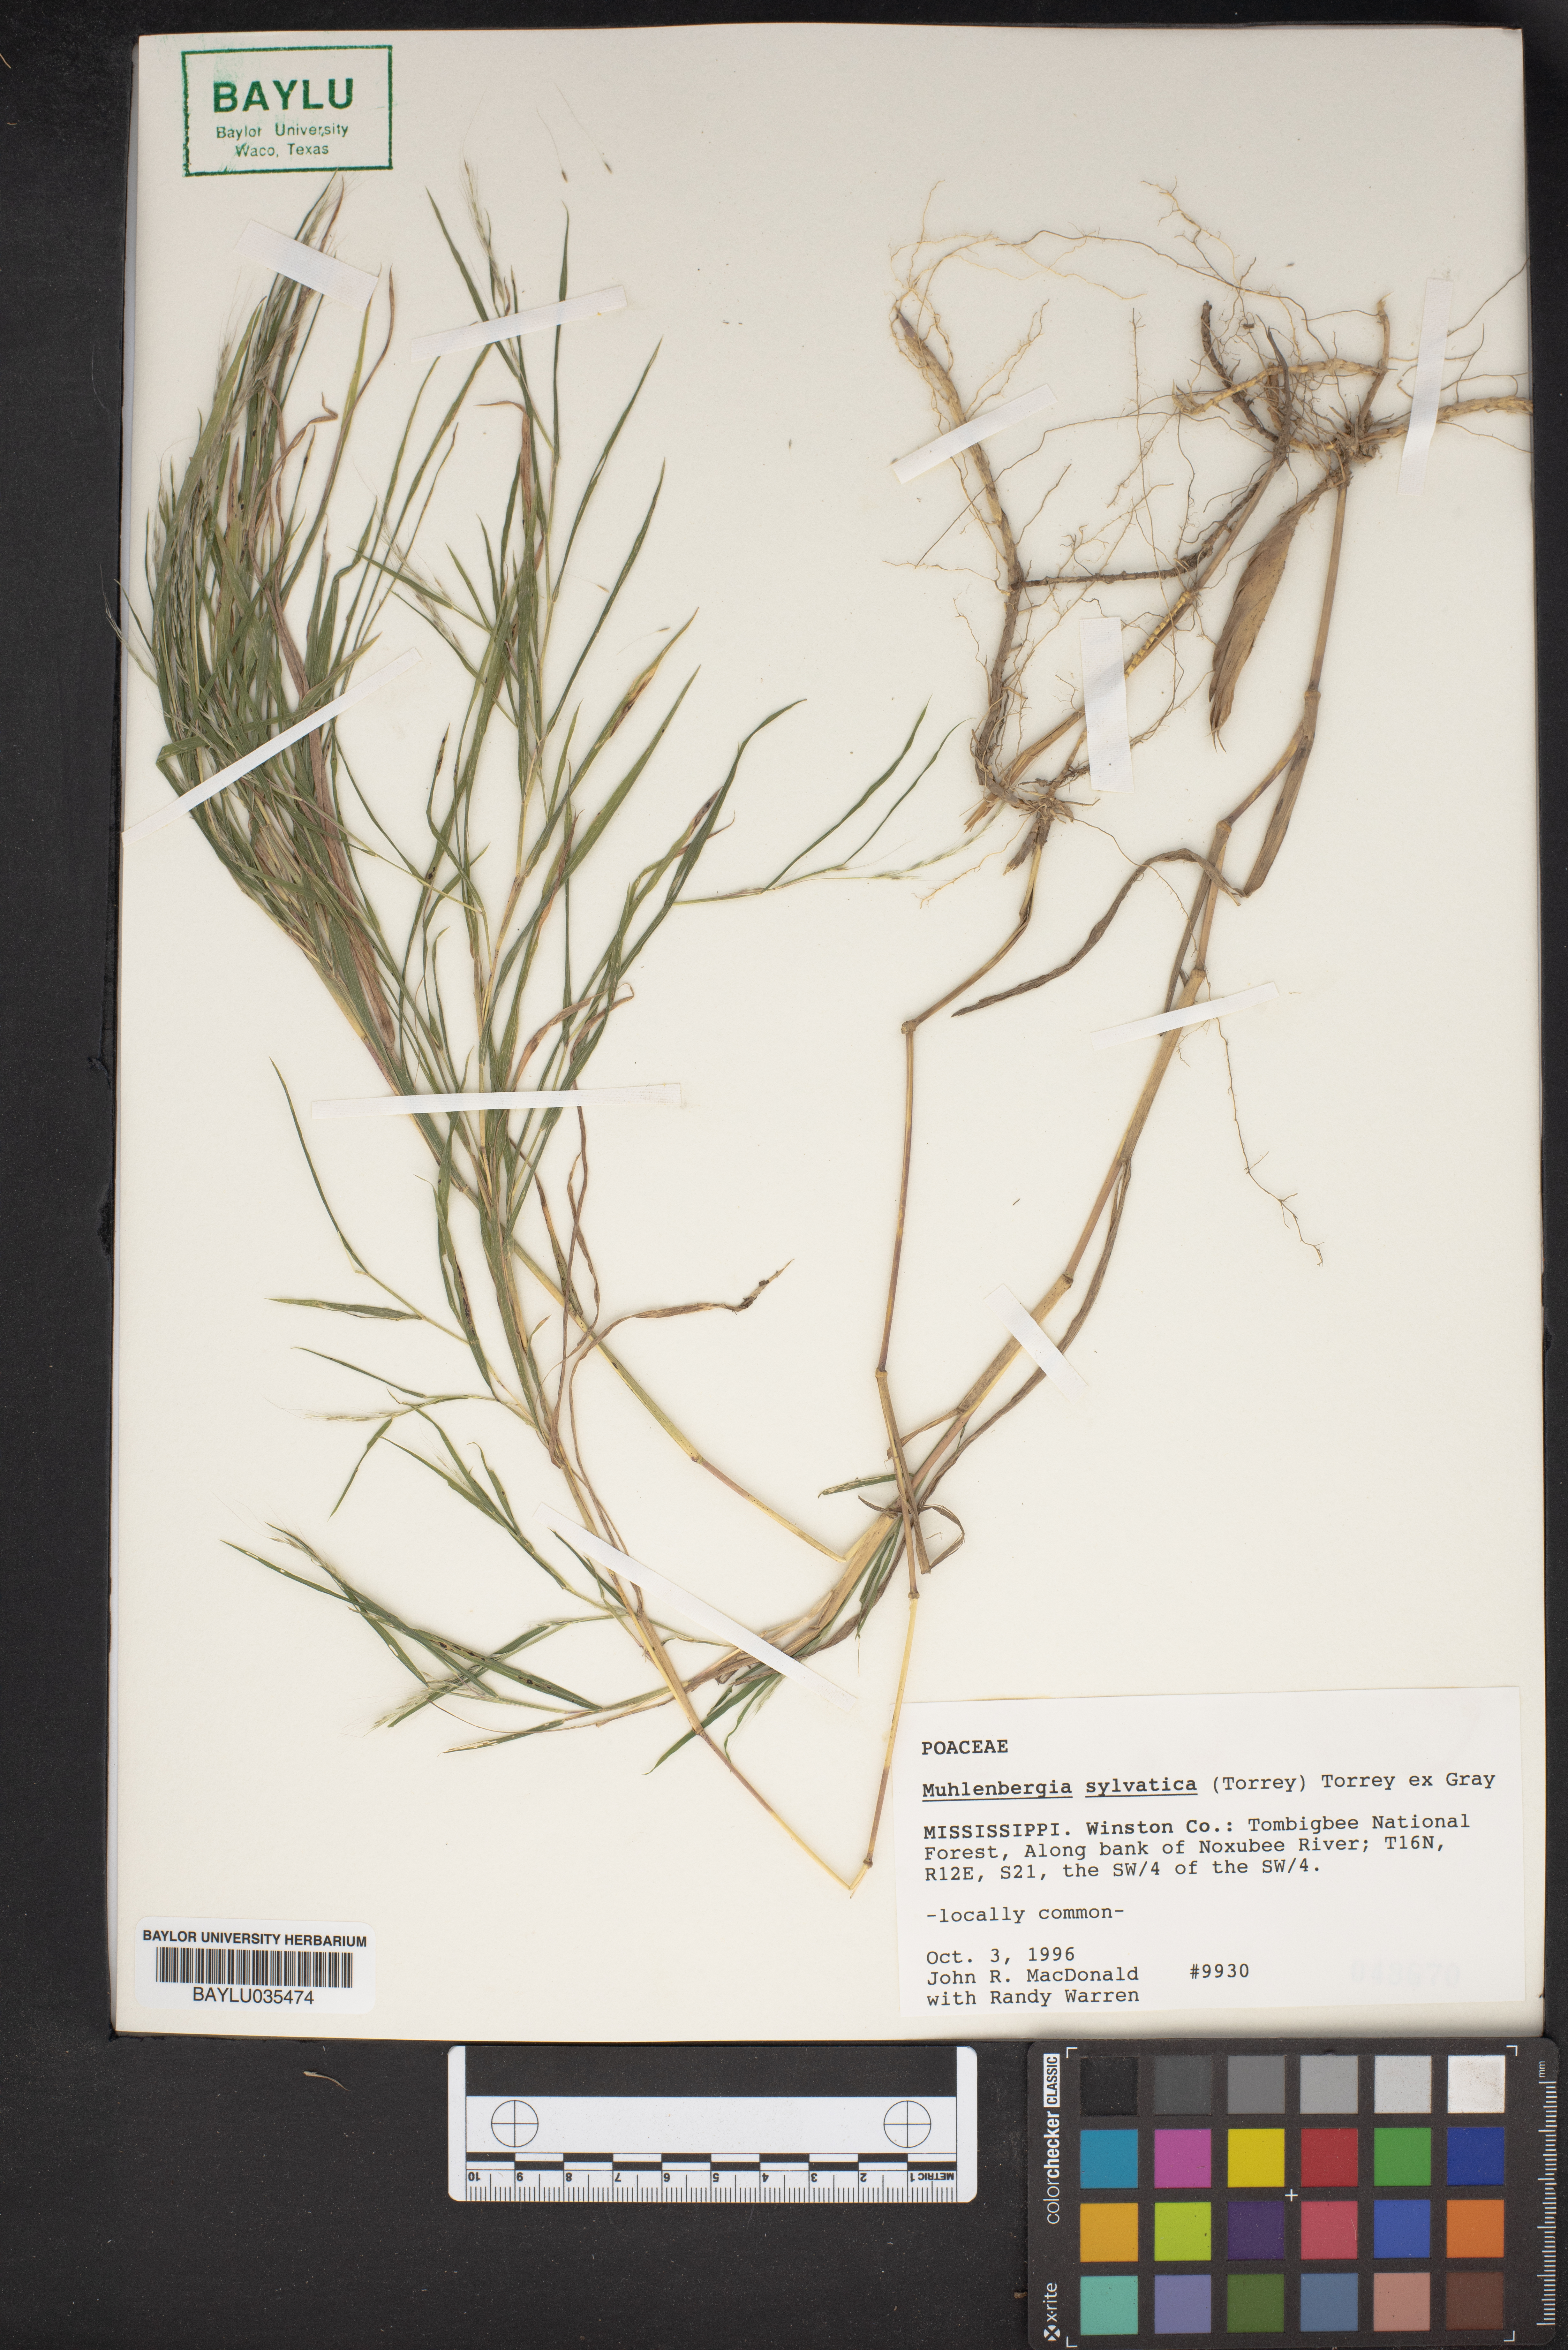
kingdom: Plantae
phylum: Tracheophyta
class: Liliopsida
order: Poales
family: Poaceae
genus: Muhlenbergia
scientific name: Muhlenbergia sylvatica
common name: Woodland muhly
